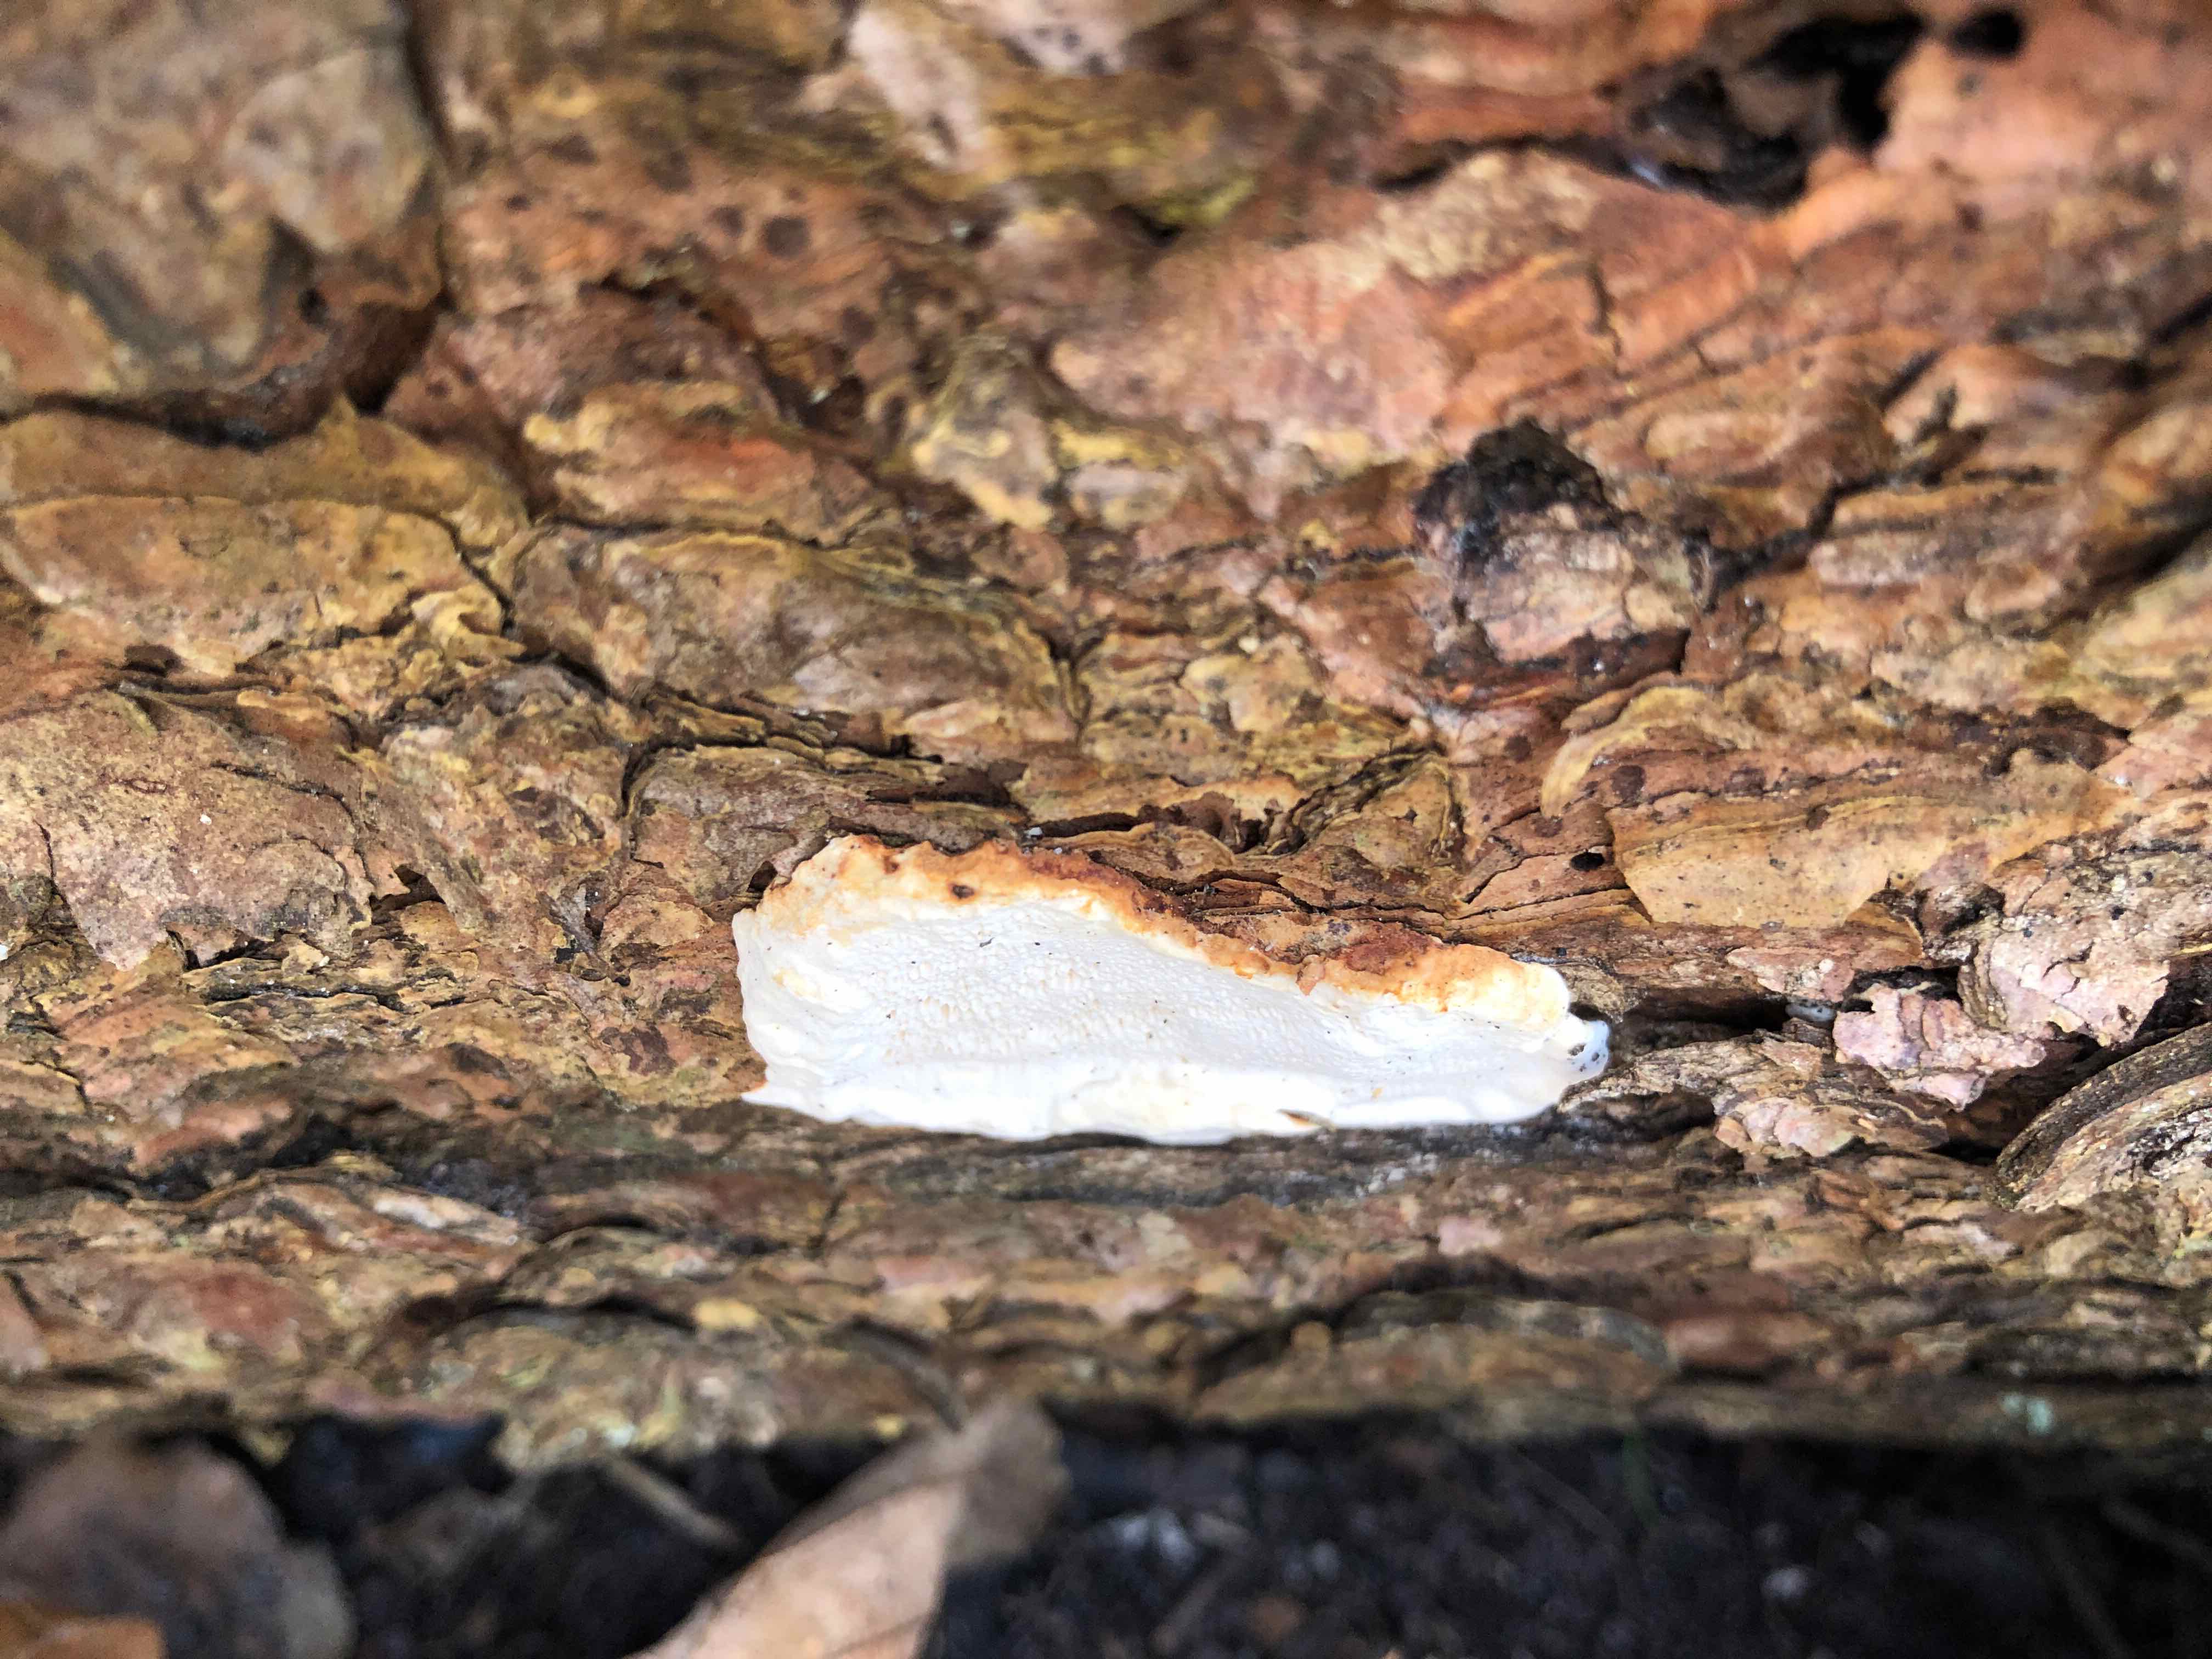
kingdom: Fungi
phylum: Basidiomycota
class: Agaricomycetes
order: Russulales
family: Bondarzewiaceae
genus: Heterobasidion
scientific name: Heterobasidion annosum
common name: almindelig rodfordærver
